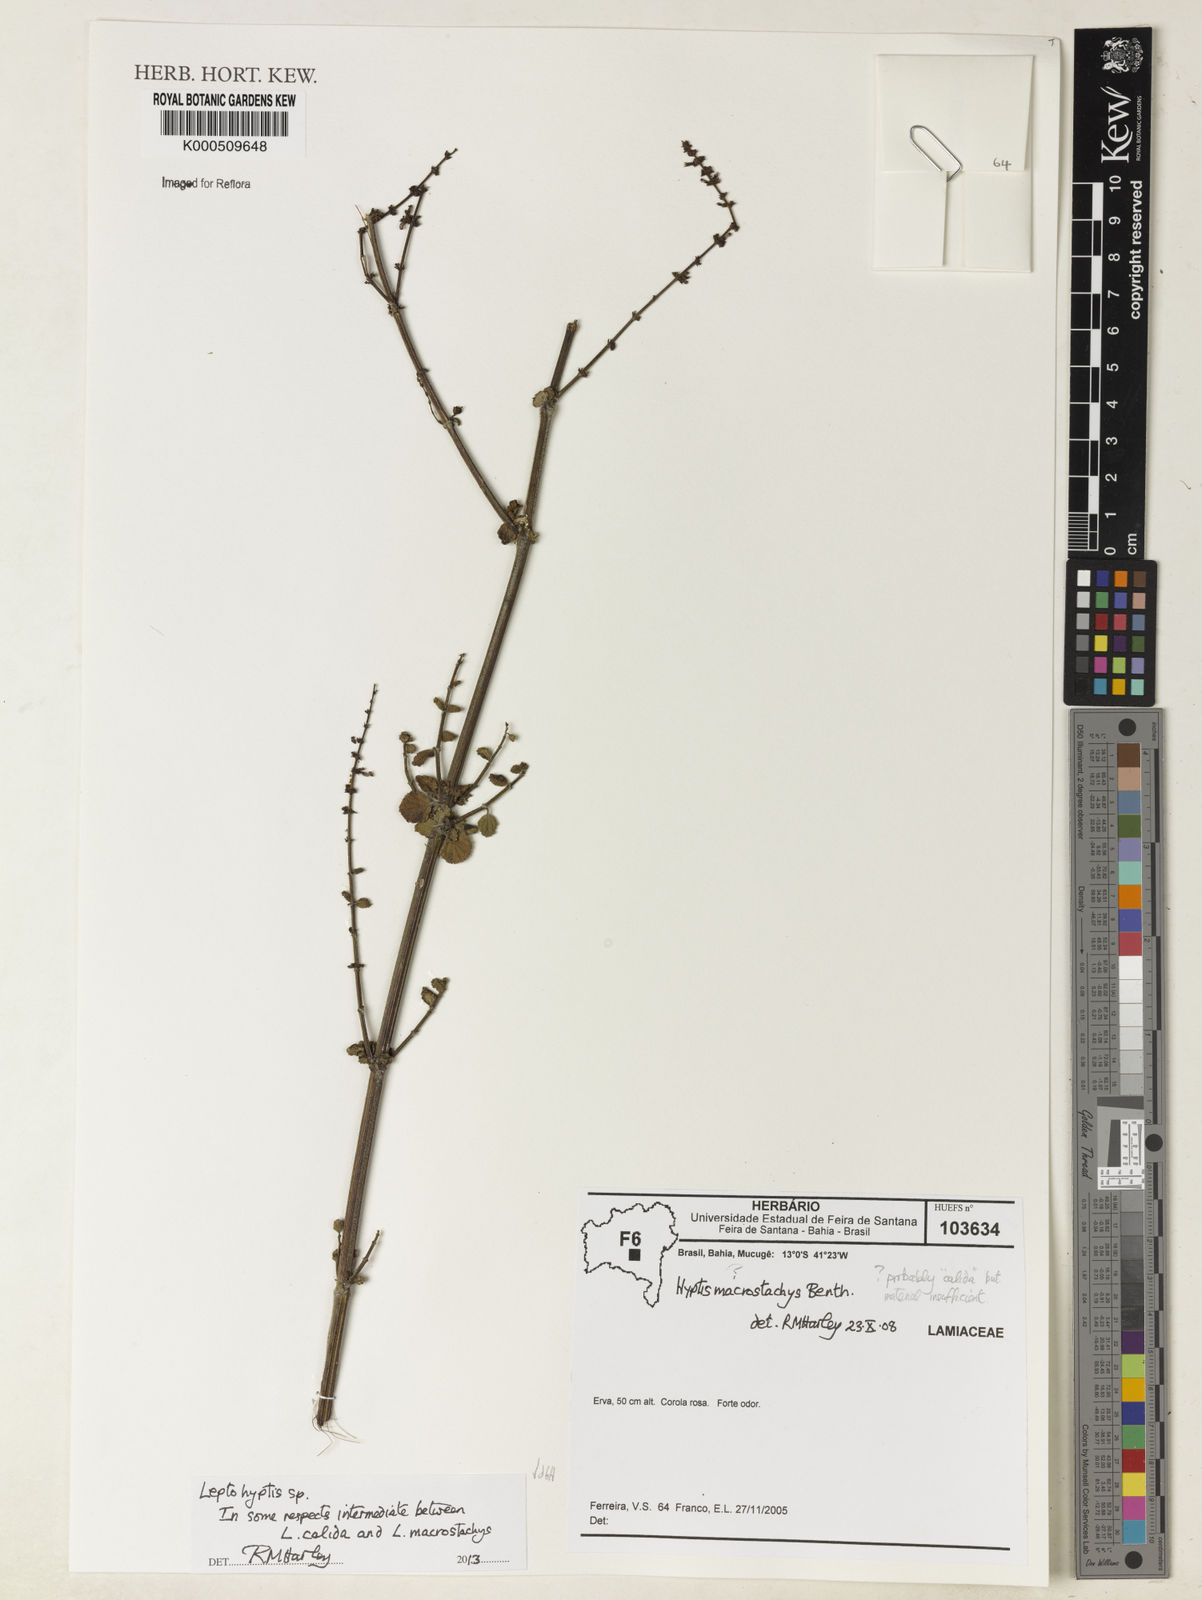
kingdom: Plantae
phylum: Tracheophyta
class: Magnoliopsida
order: Lamiales
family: Lamiaceae
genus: Leptohyptis
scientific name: Leptohyptis macrostachys
